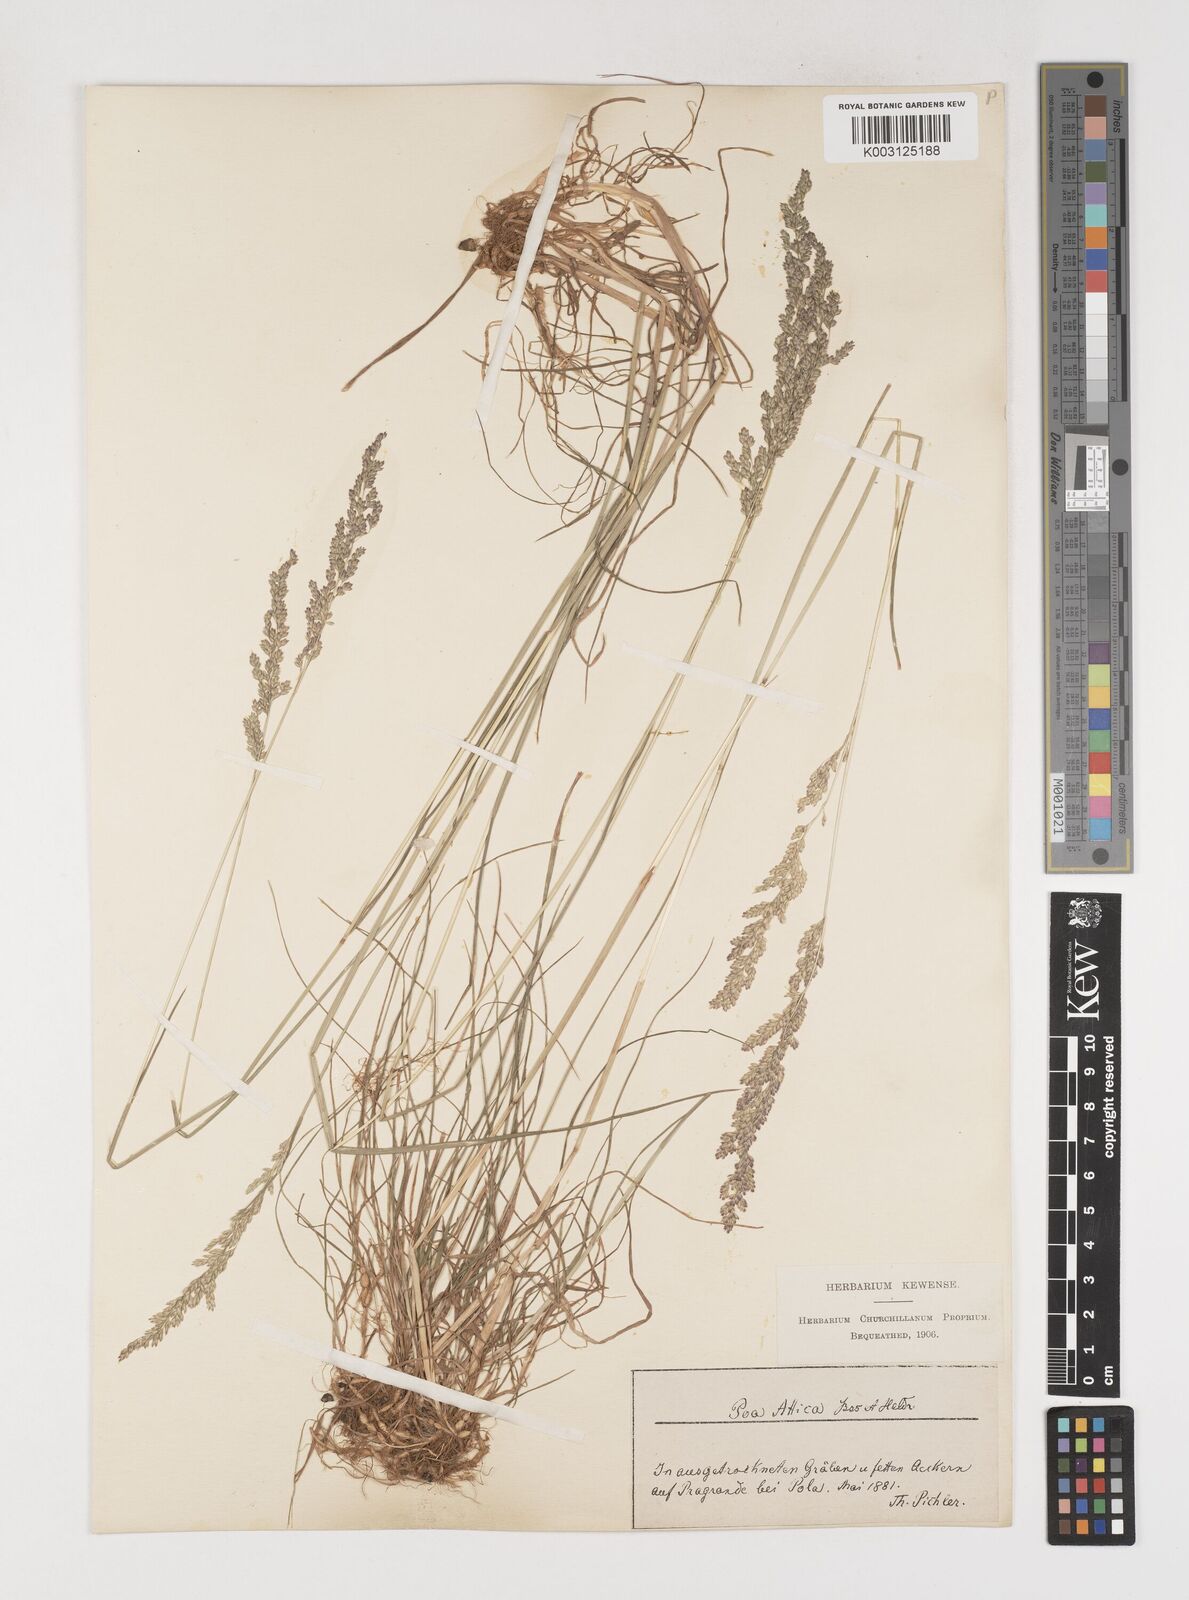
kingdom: Plantae
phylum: Tracheophyta
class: Liliopsida
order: Poales
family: Poaceae
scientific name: Poaceae
